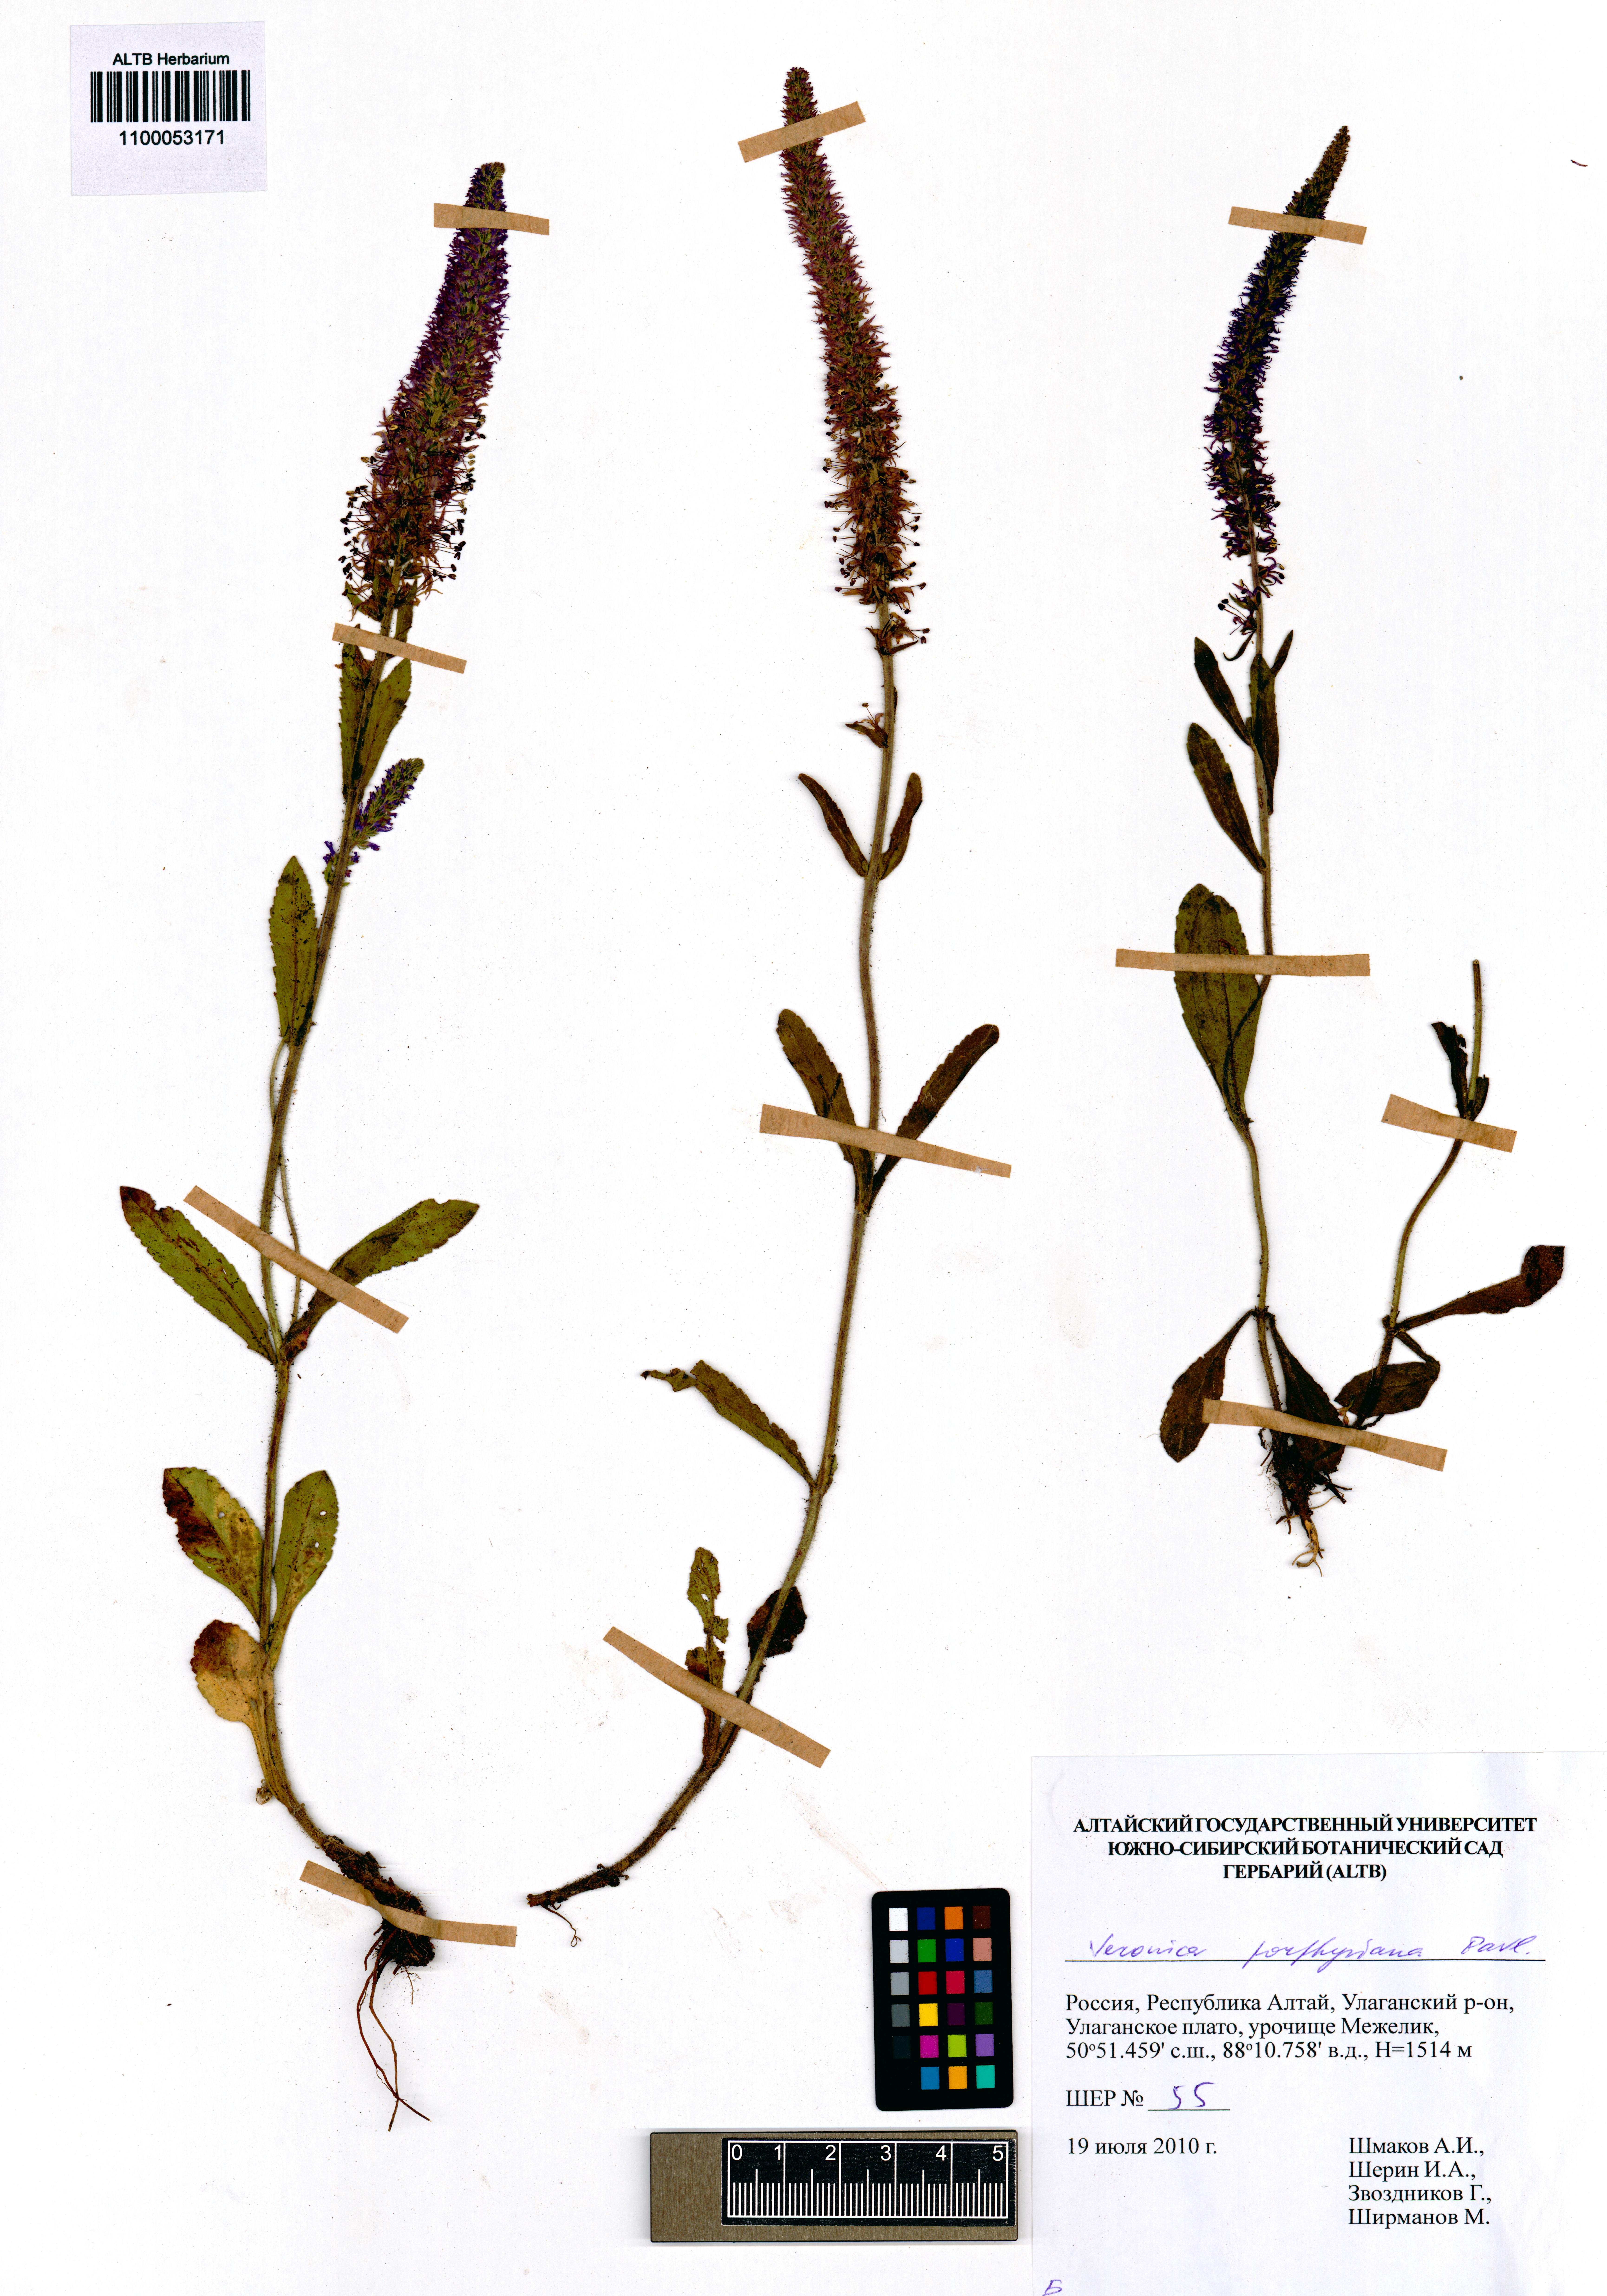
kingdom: Plantae
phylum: Tracheophyta
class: Magnoliopsida
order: Lamiales
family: Plantaginaceae
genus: Veronica
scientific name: Veronica porphyriana
